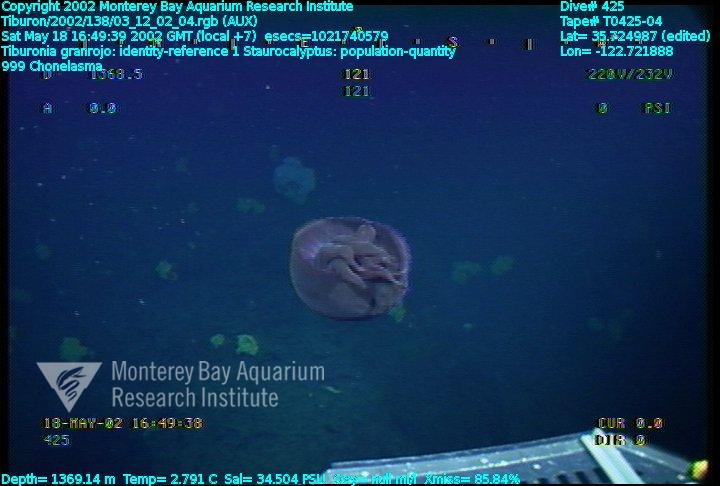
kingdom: Animalia
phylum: Porifera
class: Hexactinellida
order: Lyssacinosida
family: Rossellidae
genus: Staurocalyptus
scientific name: Staurocalyptus
